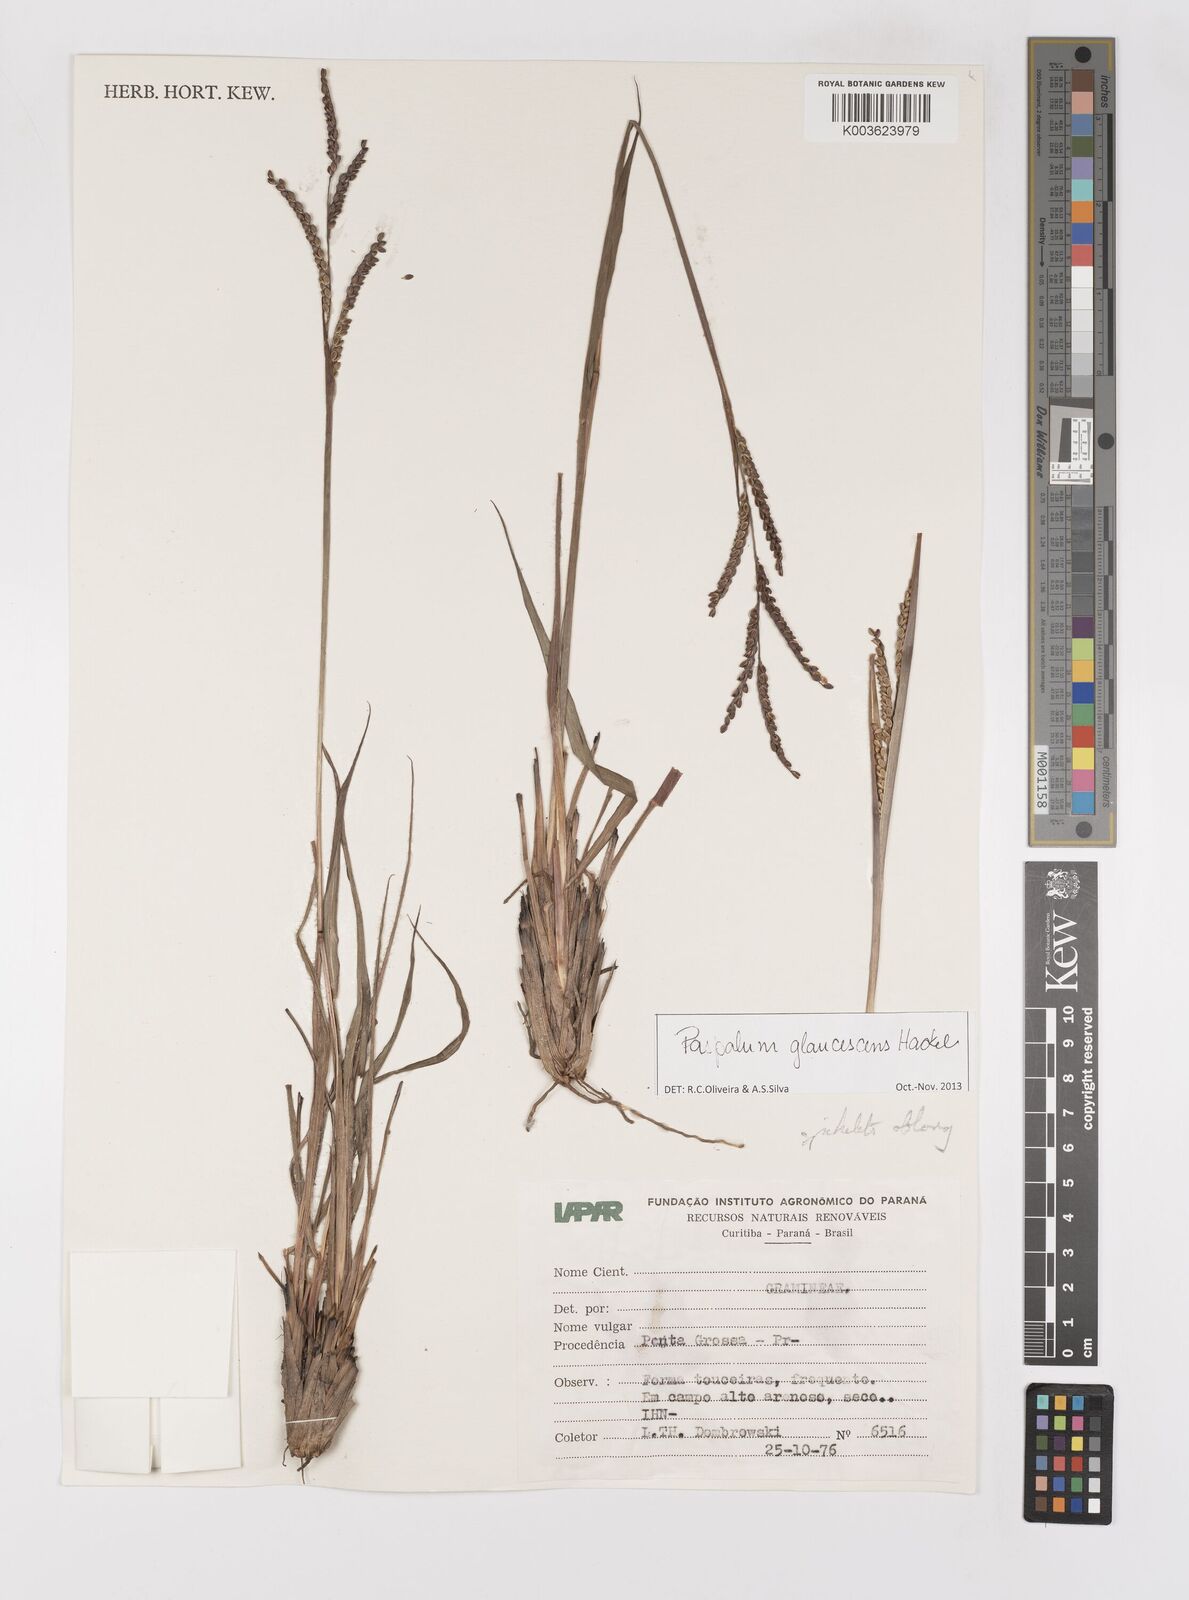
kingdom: Plantae
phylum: Tracheophyta
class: Liliopsida
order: Poales
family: Poaceae
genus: Paspalum
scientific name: Paspalum
